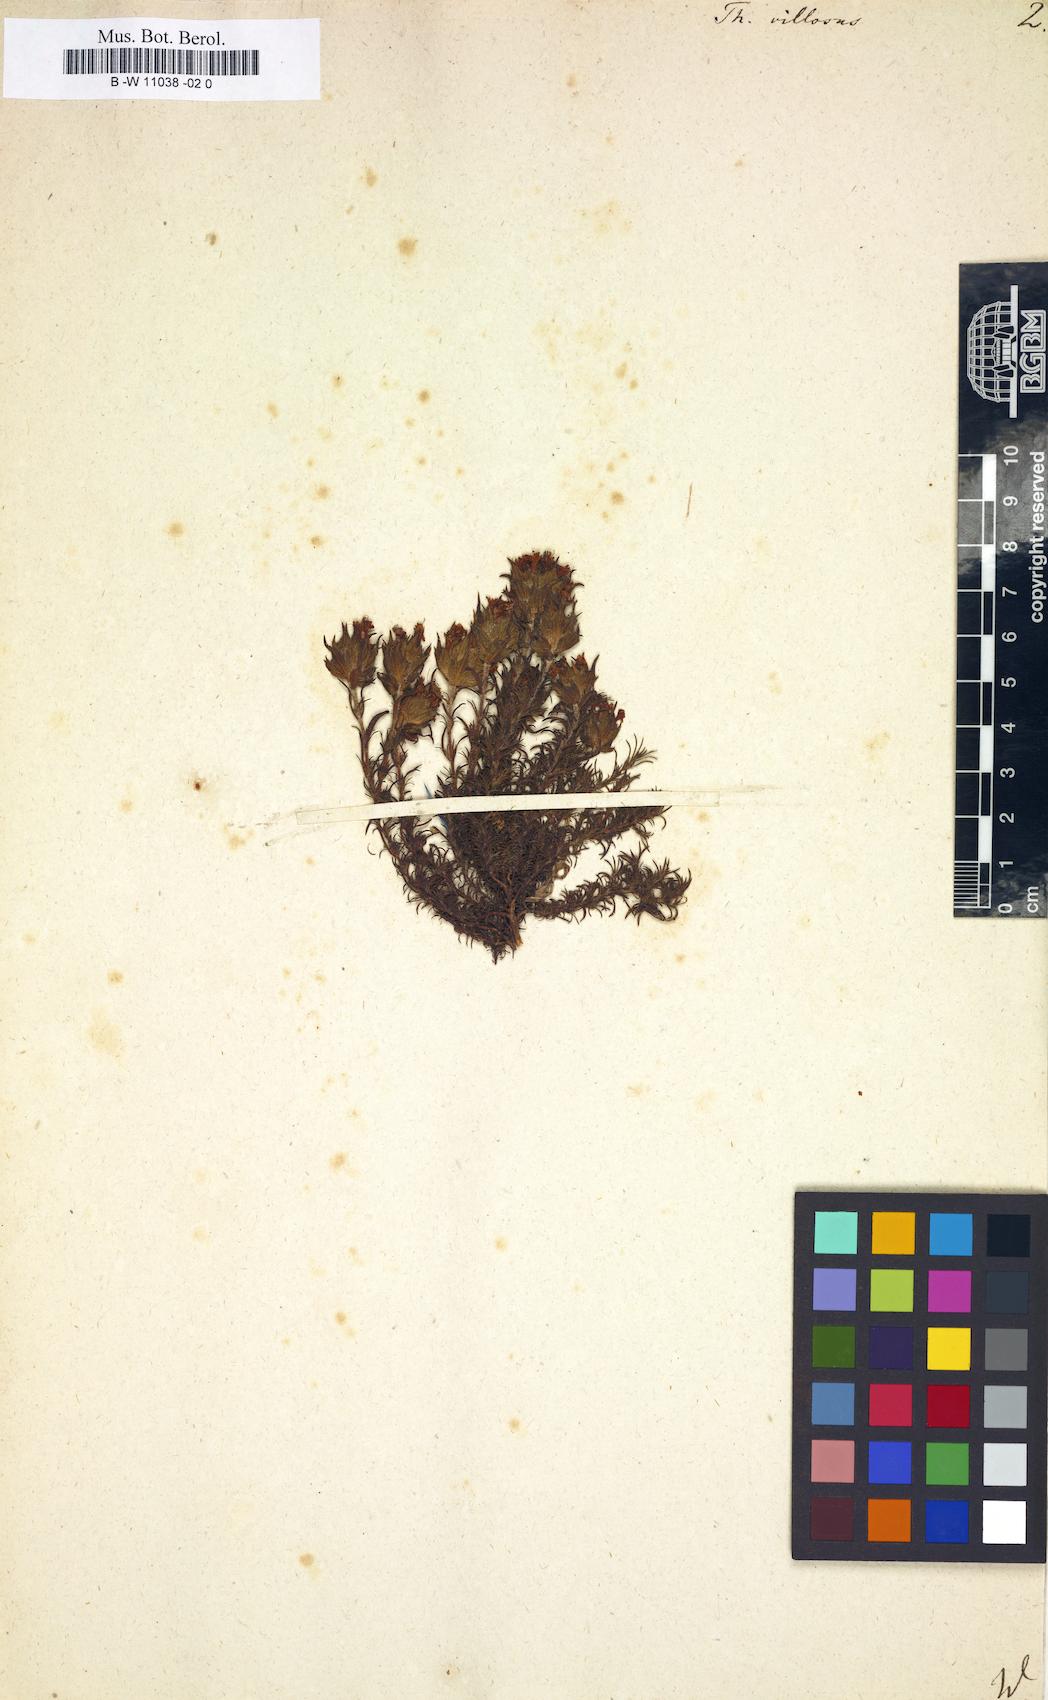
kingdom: Plantae
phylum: Tracheophyta
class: Magnoliopsida
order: Lamiales
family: Lamiaceae
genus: Thymus
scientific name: Thymus villosus
